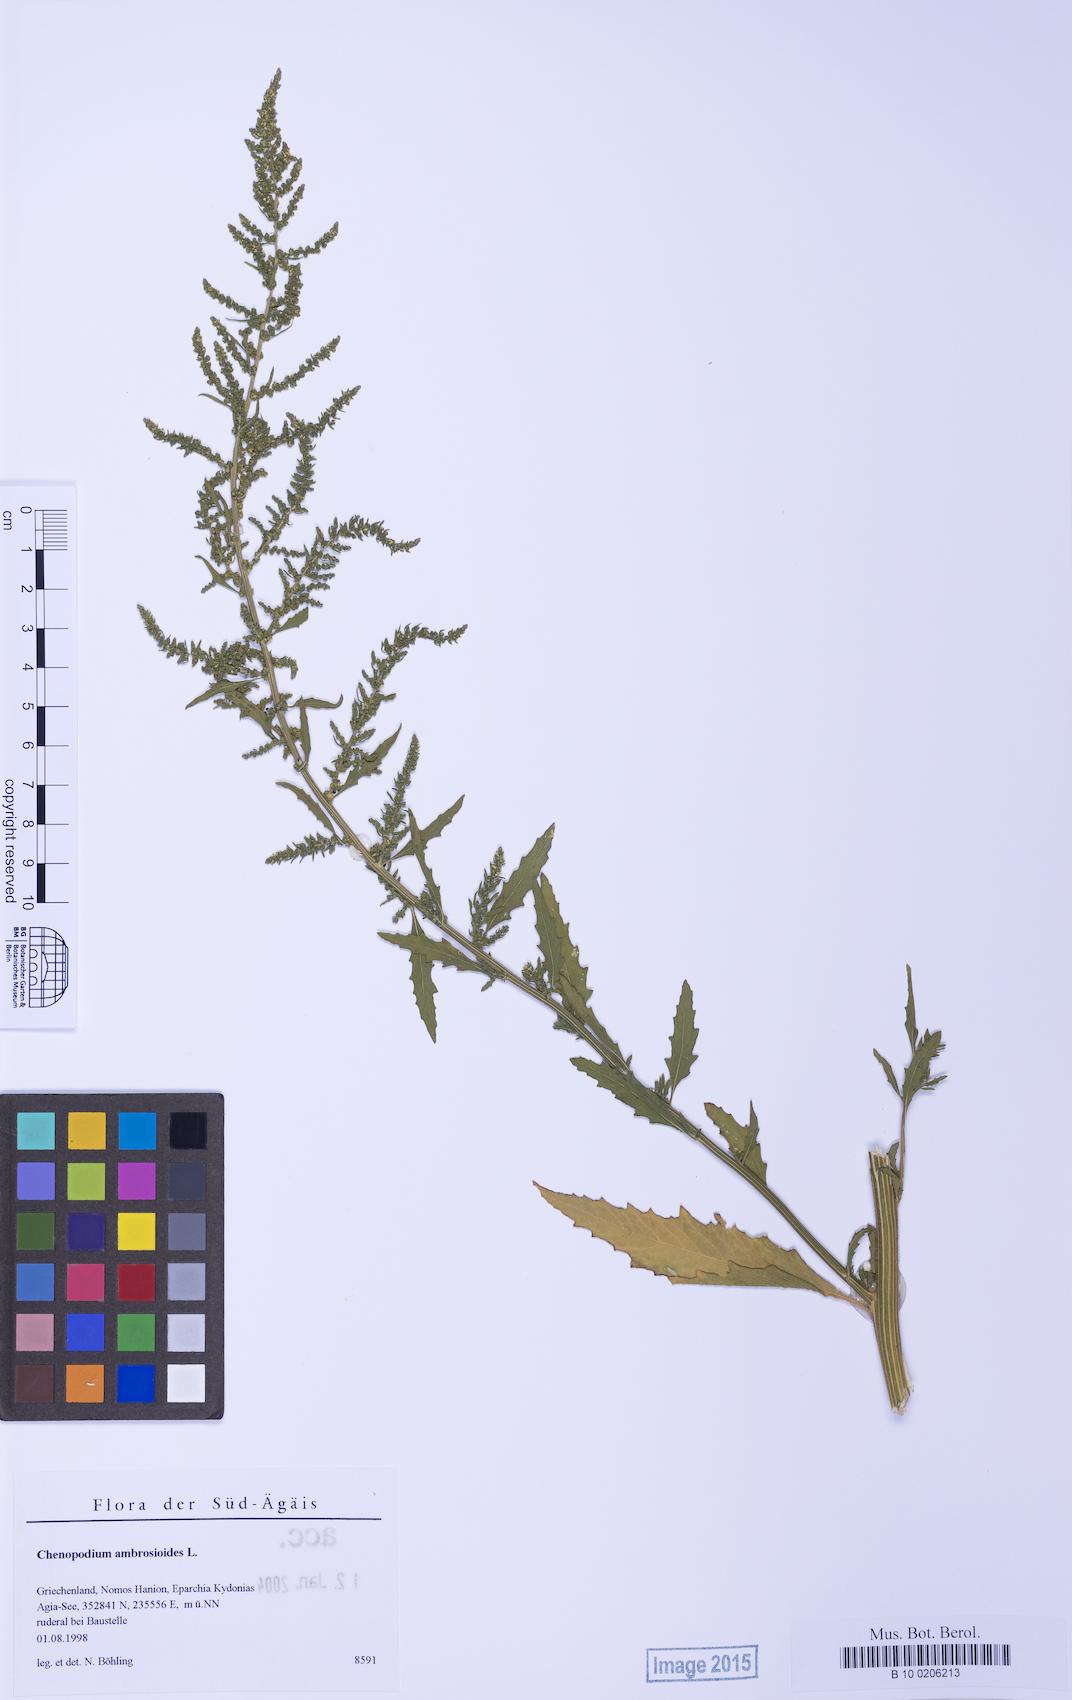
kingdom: Plantae
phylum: Tracheophyta
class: Magnoliopsida
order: Caryophyllales
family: Amaranthaceae
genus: Dysphania
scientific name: Dysphania ambrosioides
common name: Wormseed
